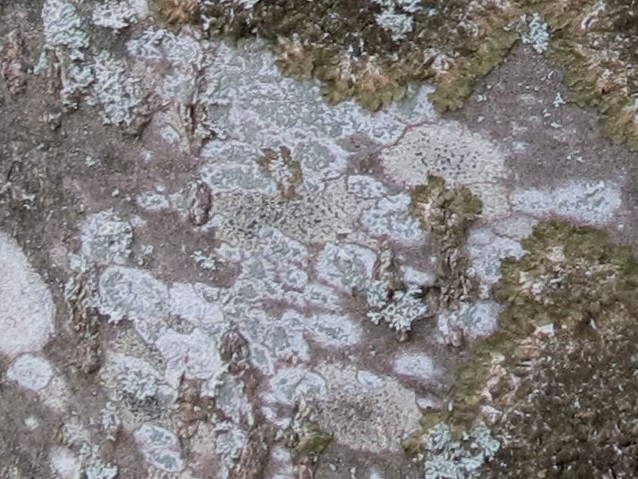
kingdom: Fungi
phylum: Ascomycota
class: Lecanoromycetes
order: Caliciales
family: Caliciaceae
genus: Buellia
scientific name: Buellia griseovirens
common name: grågrøn sortskivelav
